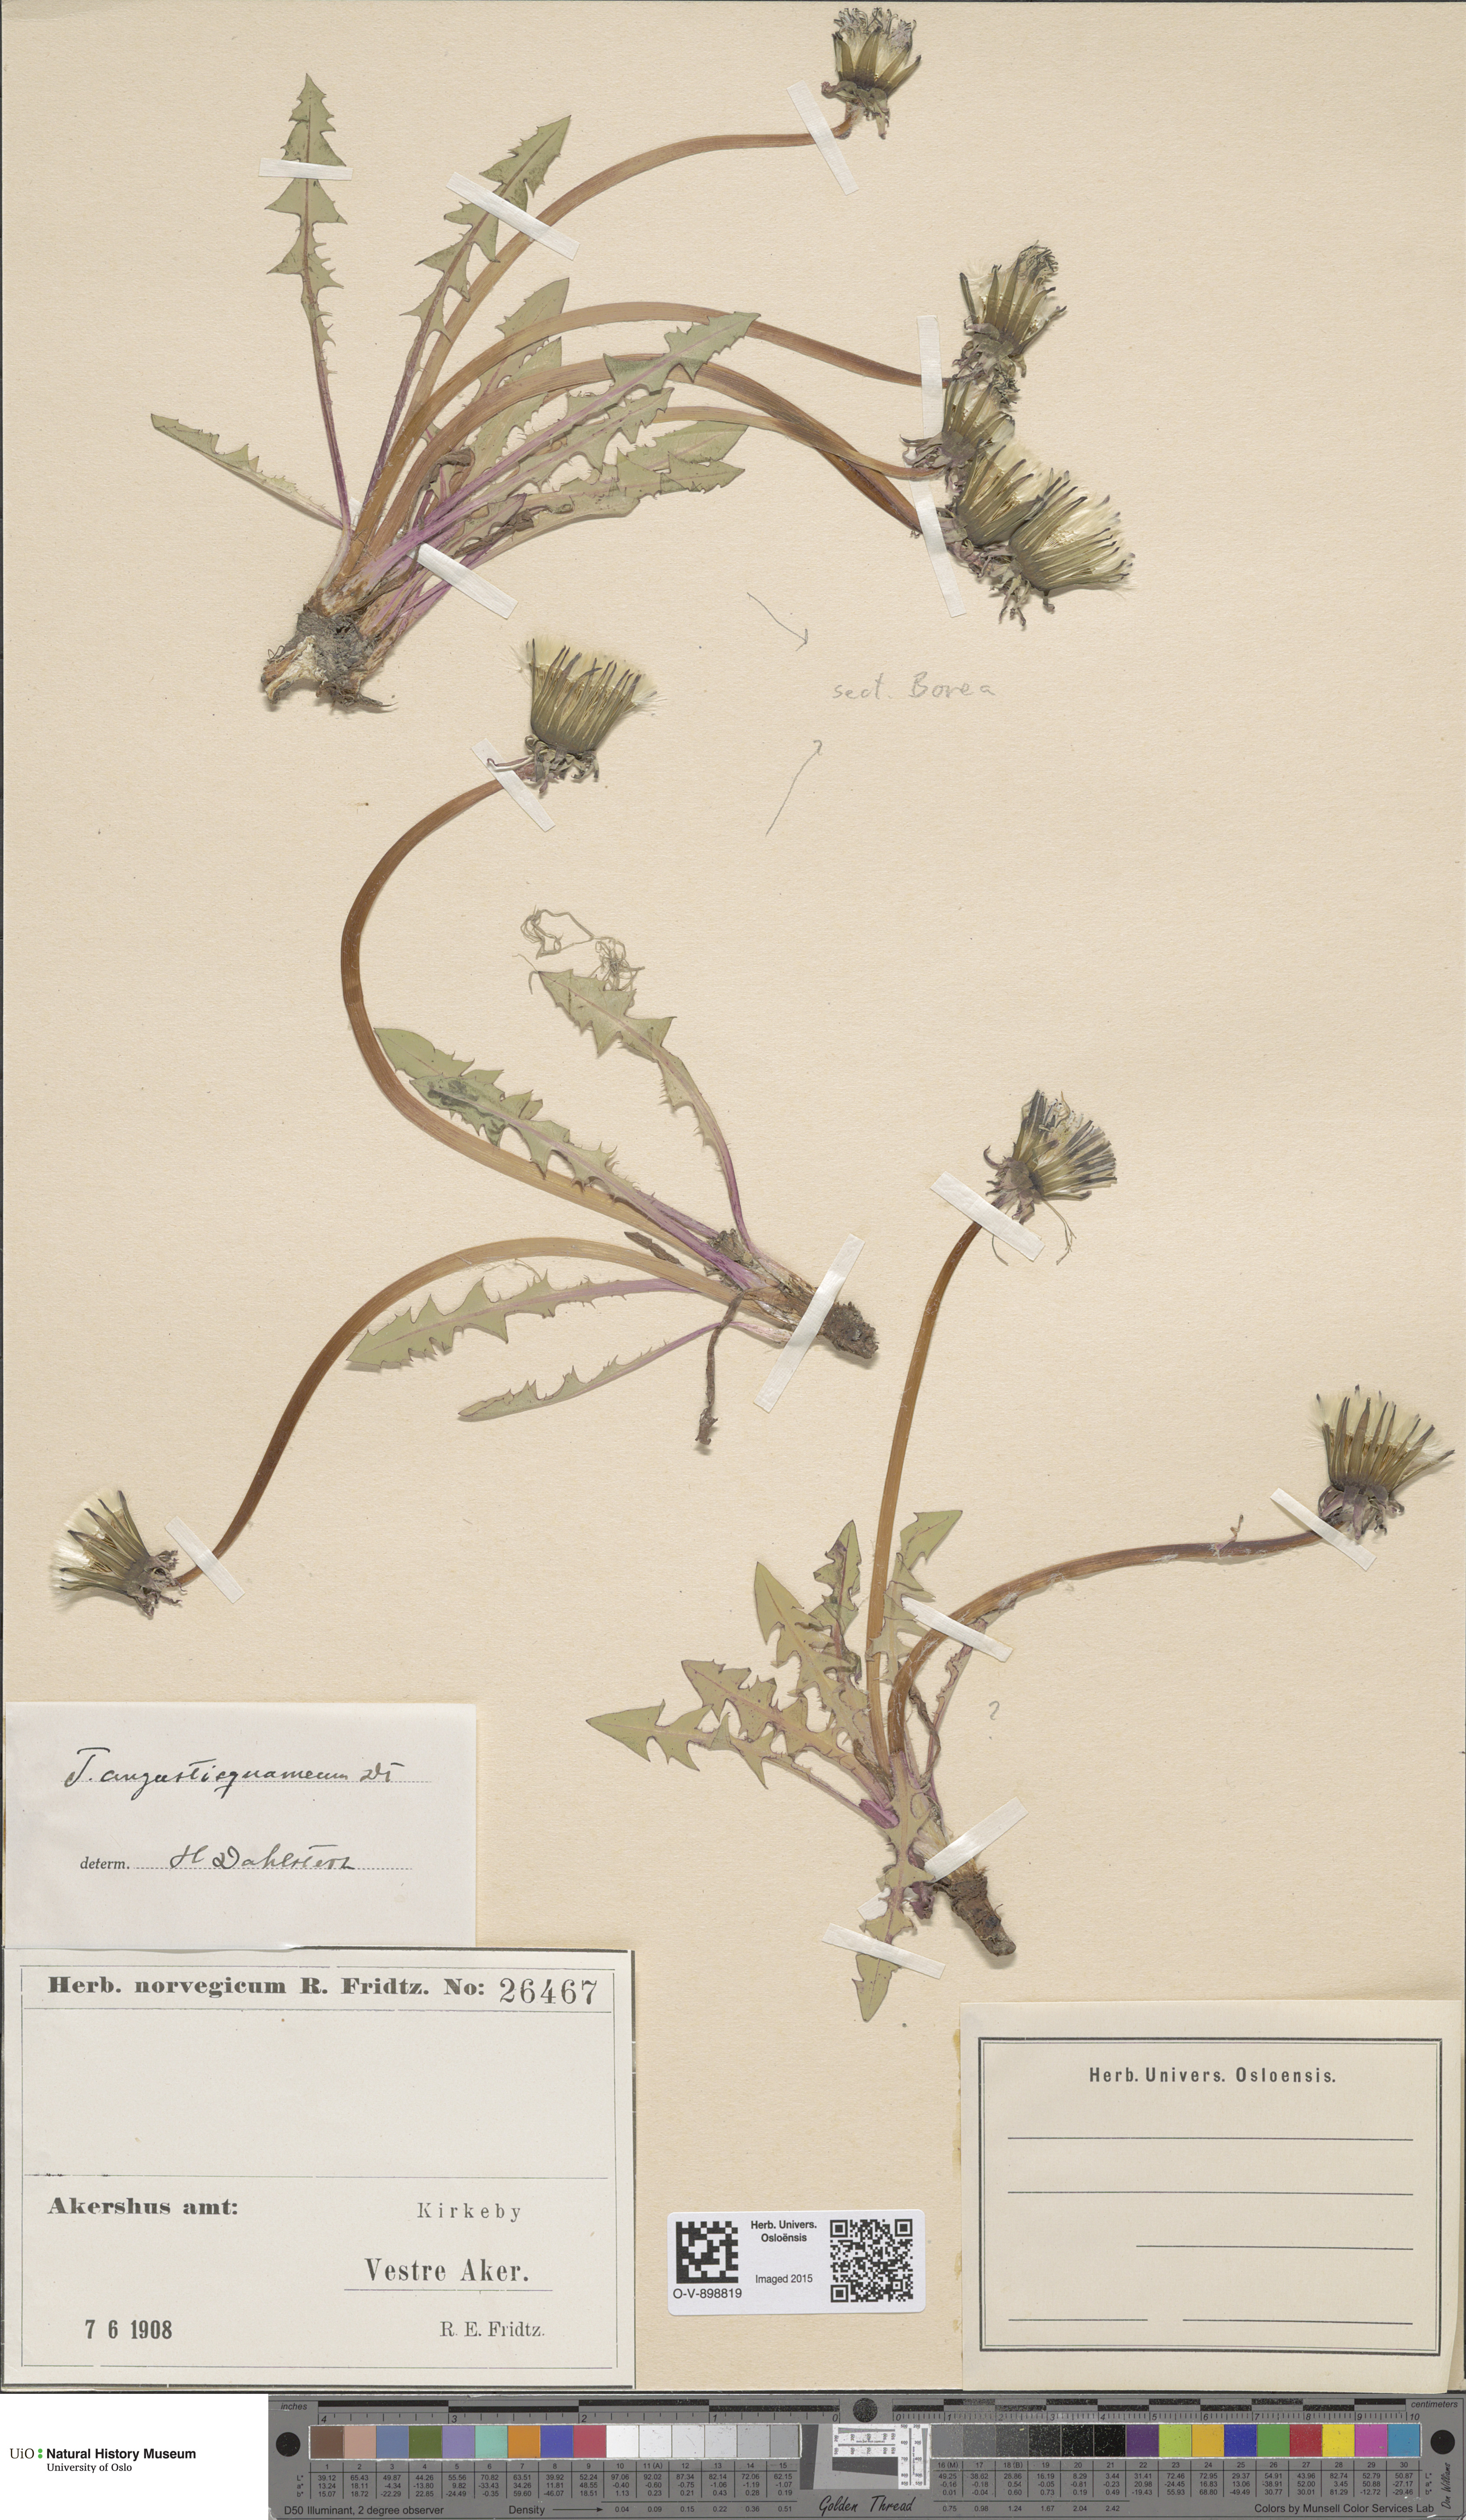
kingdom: Plantae
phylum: Tracheophyta
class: Magnoliopsida
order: Asterales
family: Asteraceae
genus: Taraxacum
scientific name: Taraxacum xanthostigma
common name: Ochre-styled dandelion
